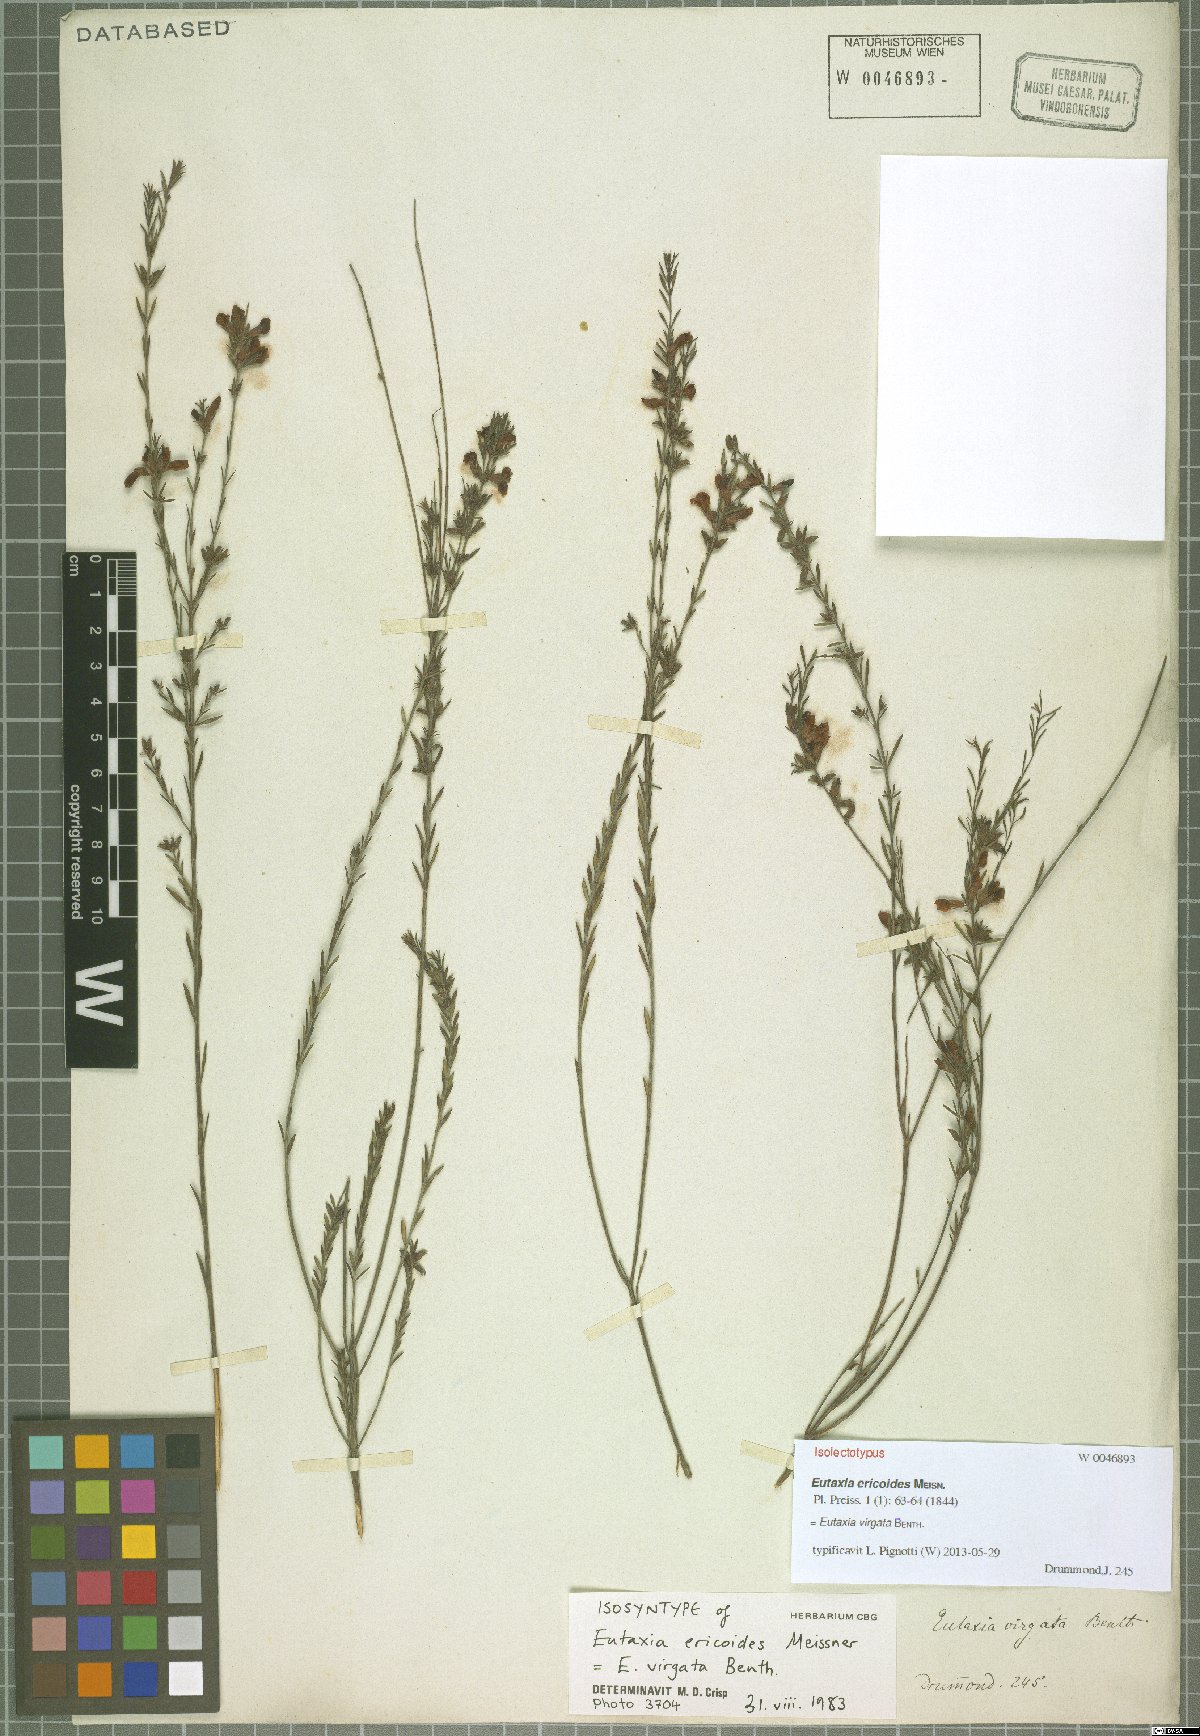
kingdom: Plantae
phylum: Tracheophyta
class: Magnoliopsida
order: Fabales
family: Fabaceae
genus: Eutaxia
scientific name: Eutaxia virgata
